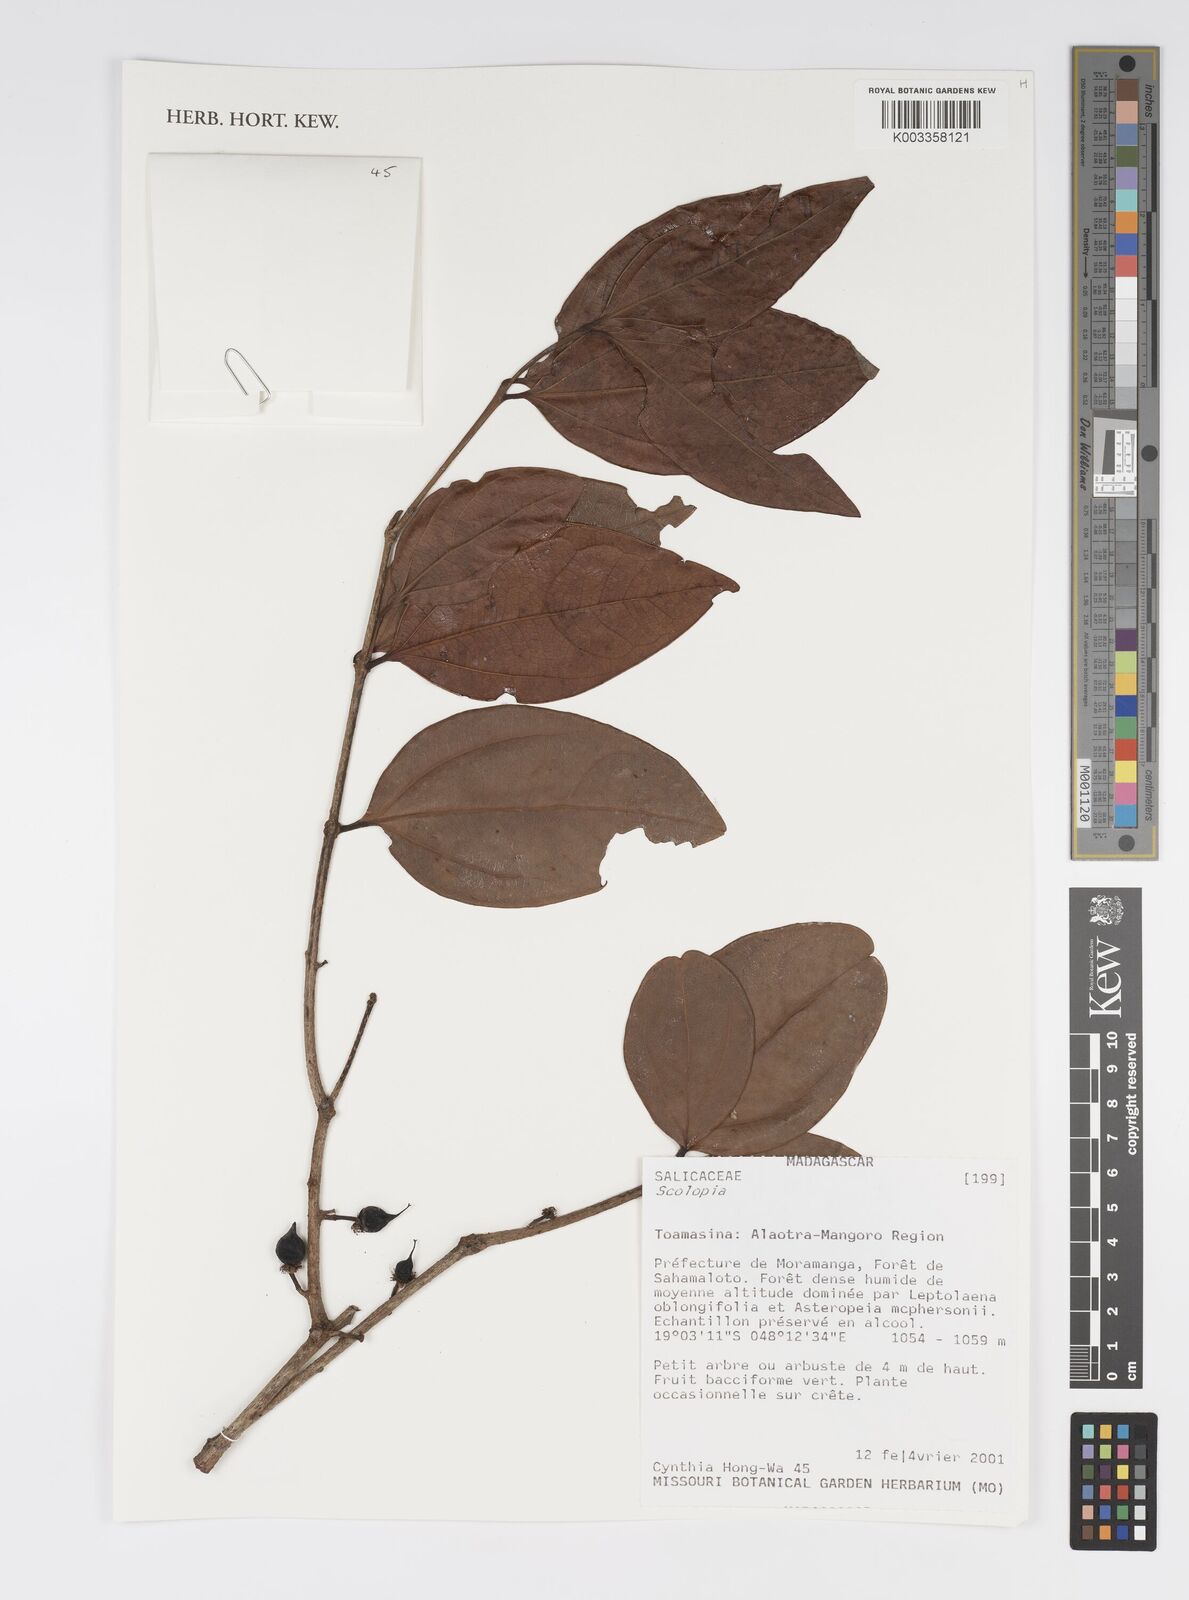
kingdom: Plantae
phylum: Tracheophyta
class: Magnoliopsida
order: Malpighiales
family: Salicaceae
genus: Scolopia
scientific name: Scolopia
